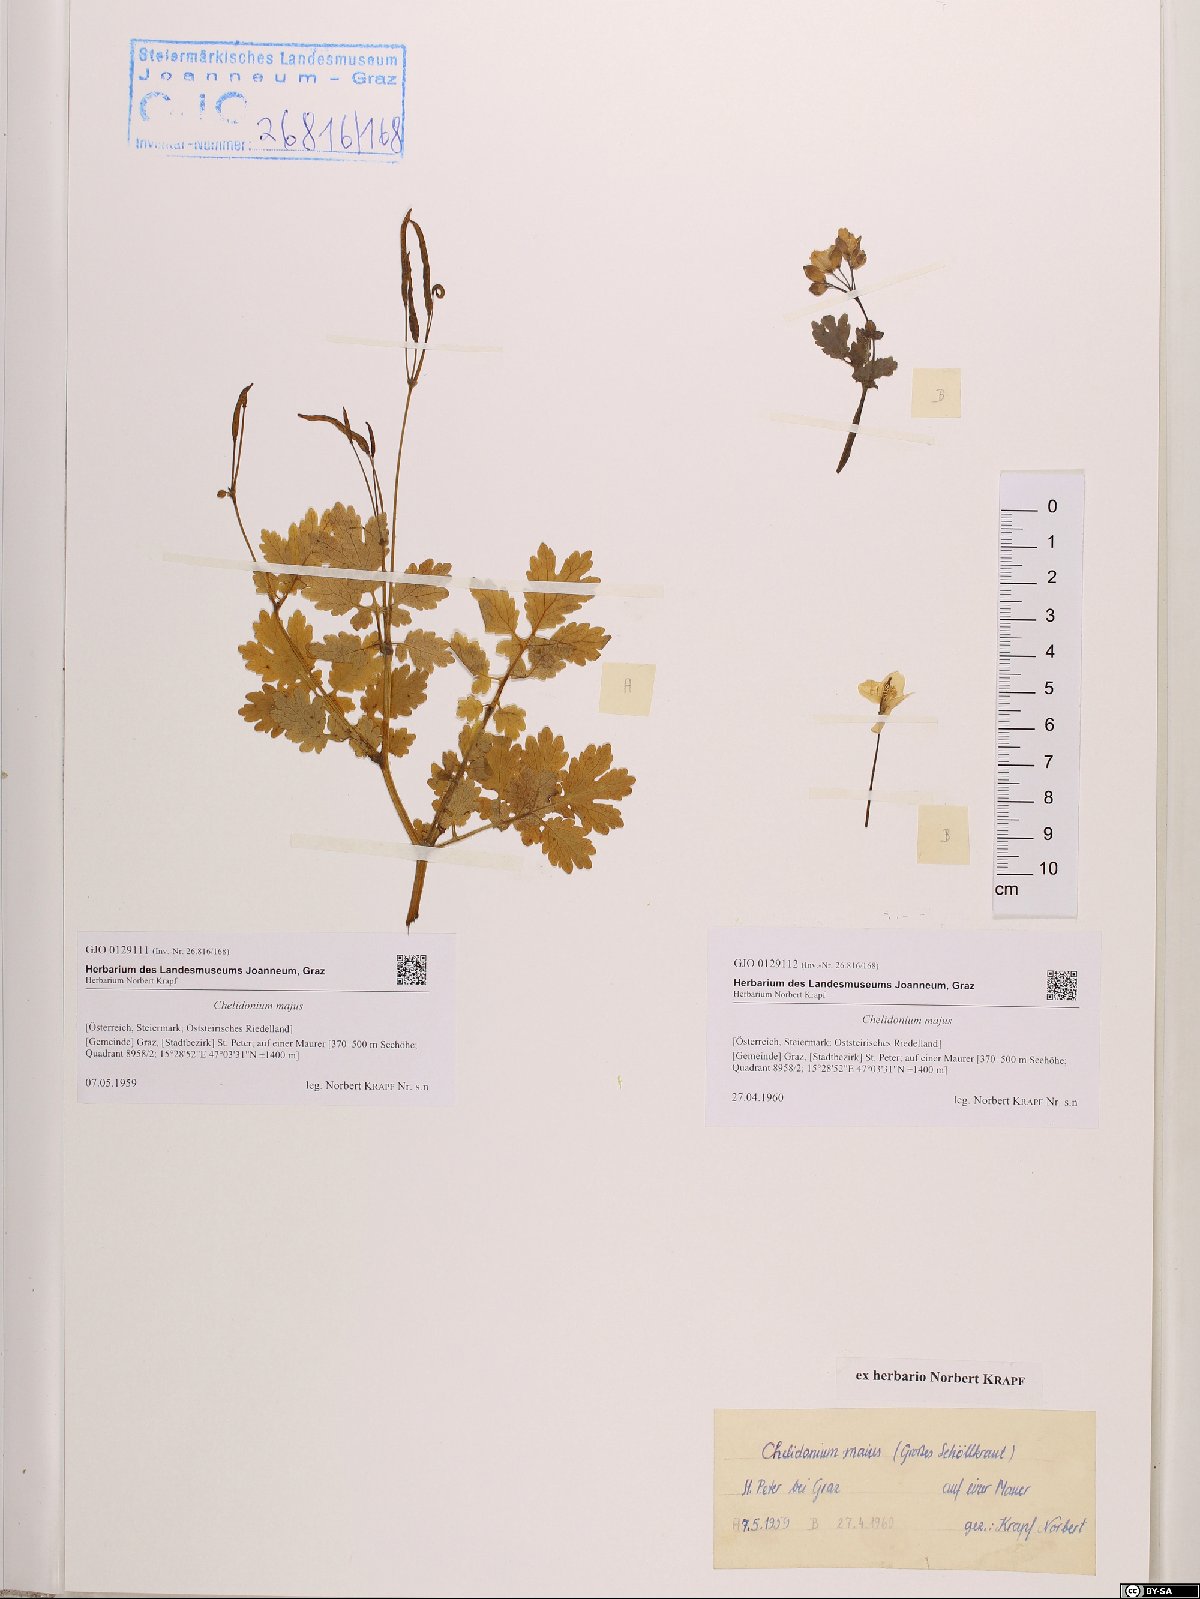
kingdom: Plantae
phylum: Tracheophyta
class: Magnoliopsida
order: Ranunculales
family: Papaveraceae
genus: Chelidonium
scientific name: Chelidonium majus
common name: Greater celandine
